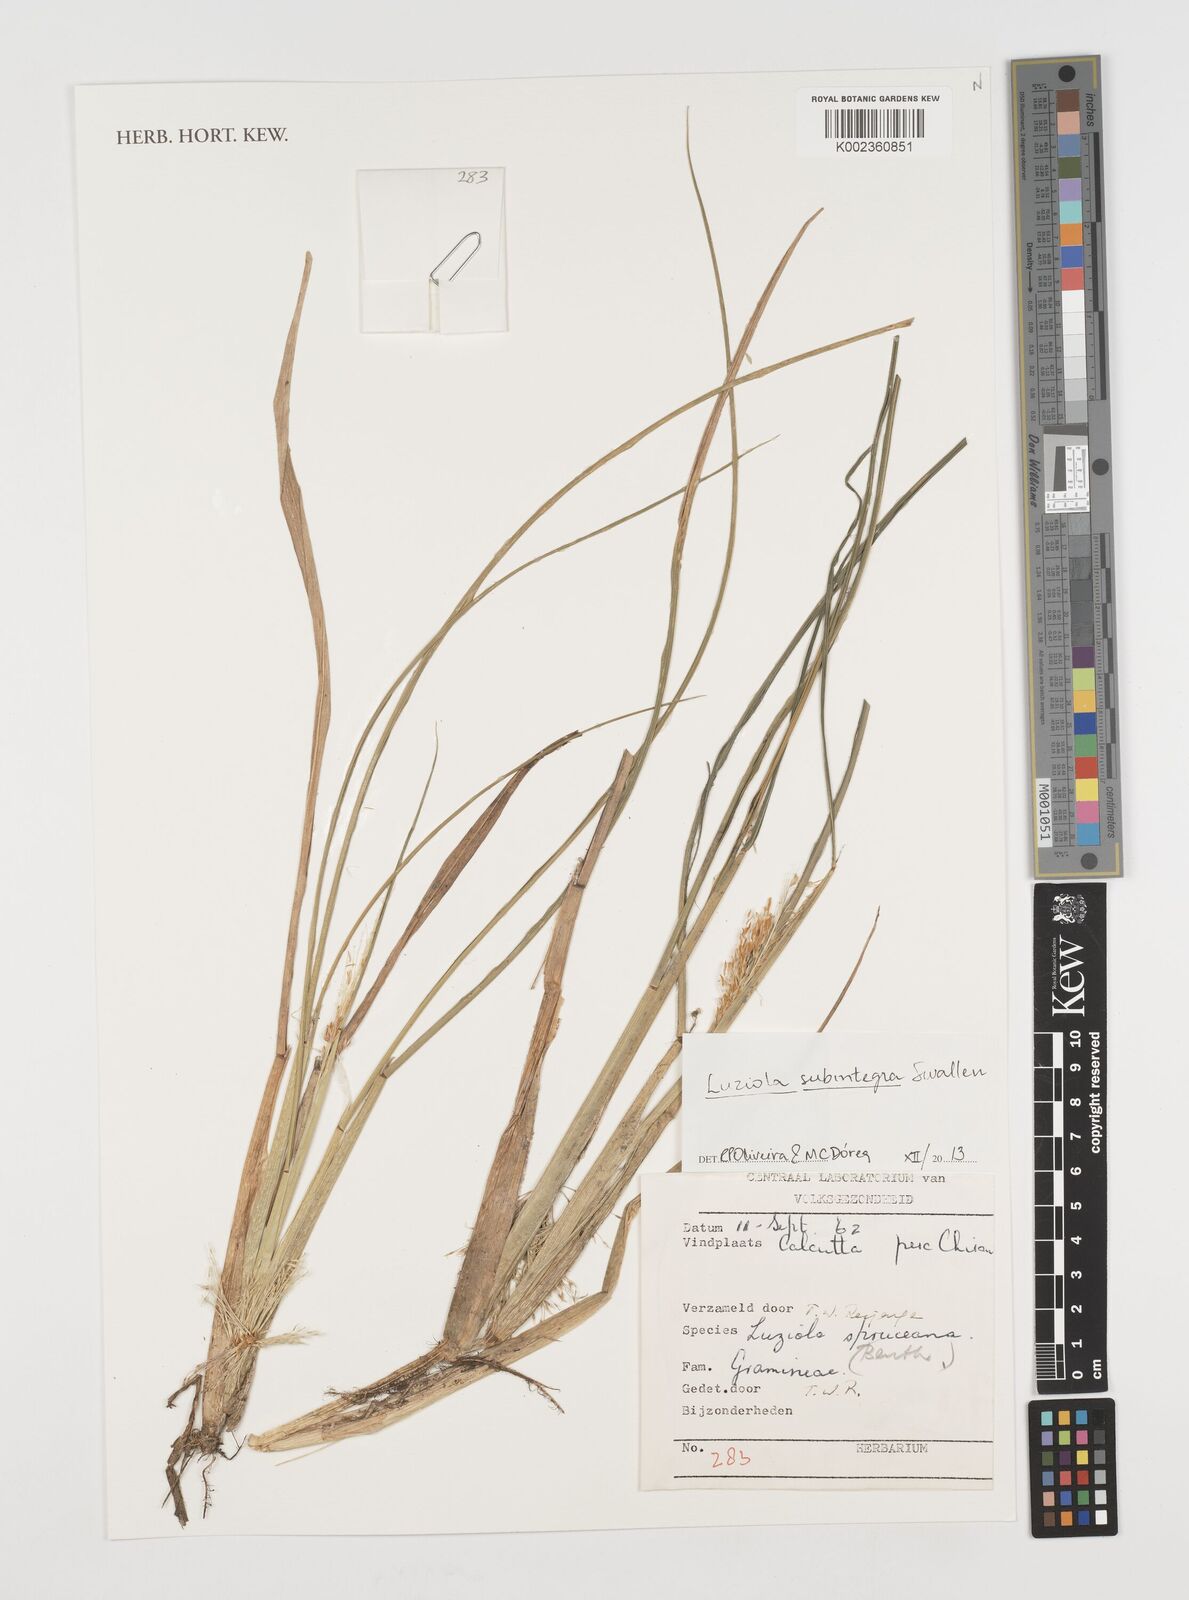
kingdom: Plantae
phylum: Tracheophyta
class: Liliopsida
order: Poales
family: Poaceae
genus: Luziola
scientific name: Luziola subintegra
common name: Large watergrass
